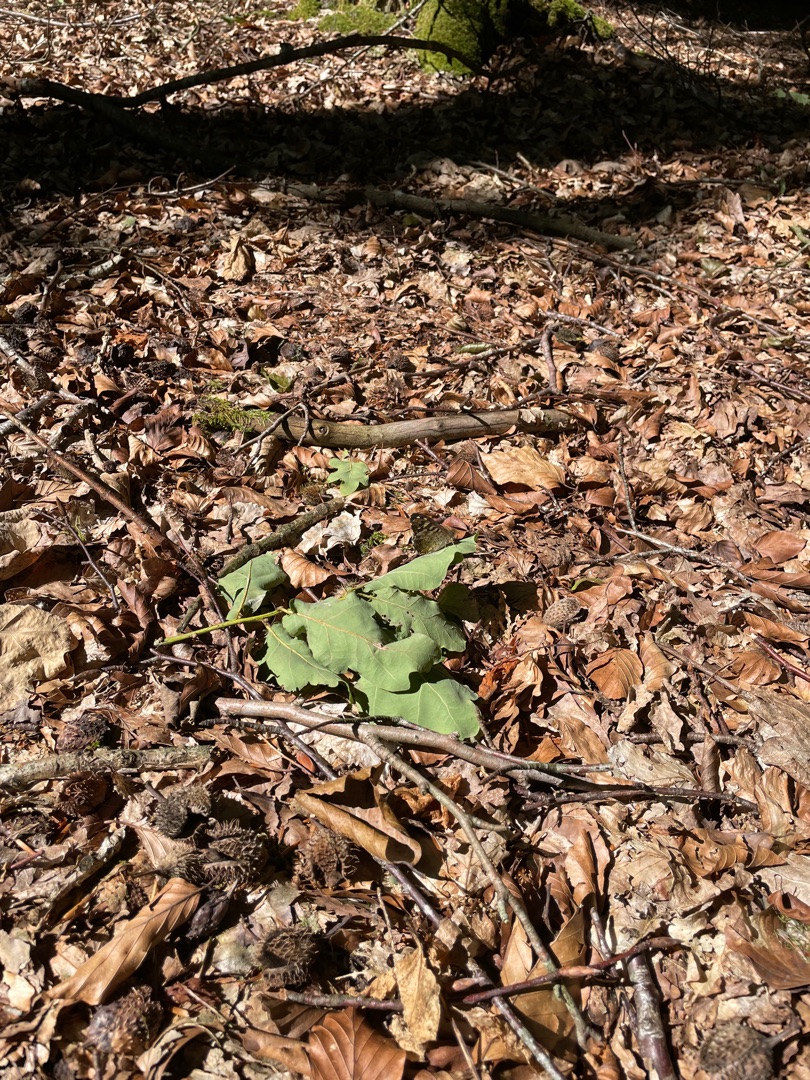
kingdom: Animalia
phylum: Arthropoda
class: Insecta
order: Lepidoptera
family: Nymphalidae
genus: Pararge
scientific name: Pararge aegeria
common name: Skovrandøje
